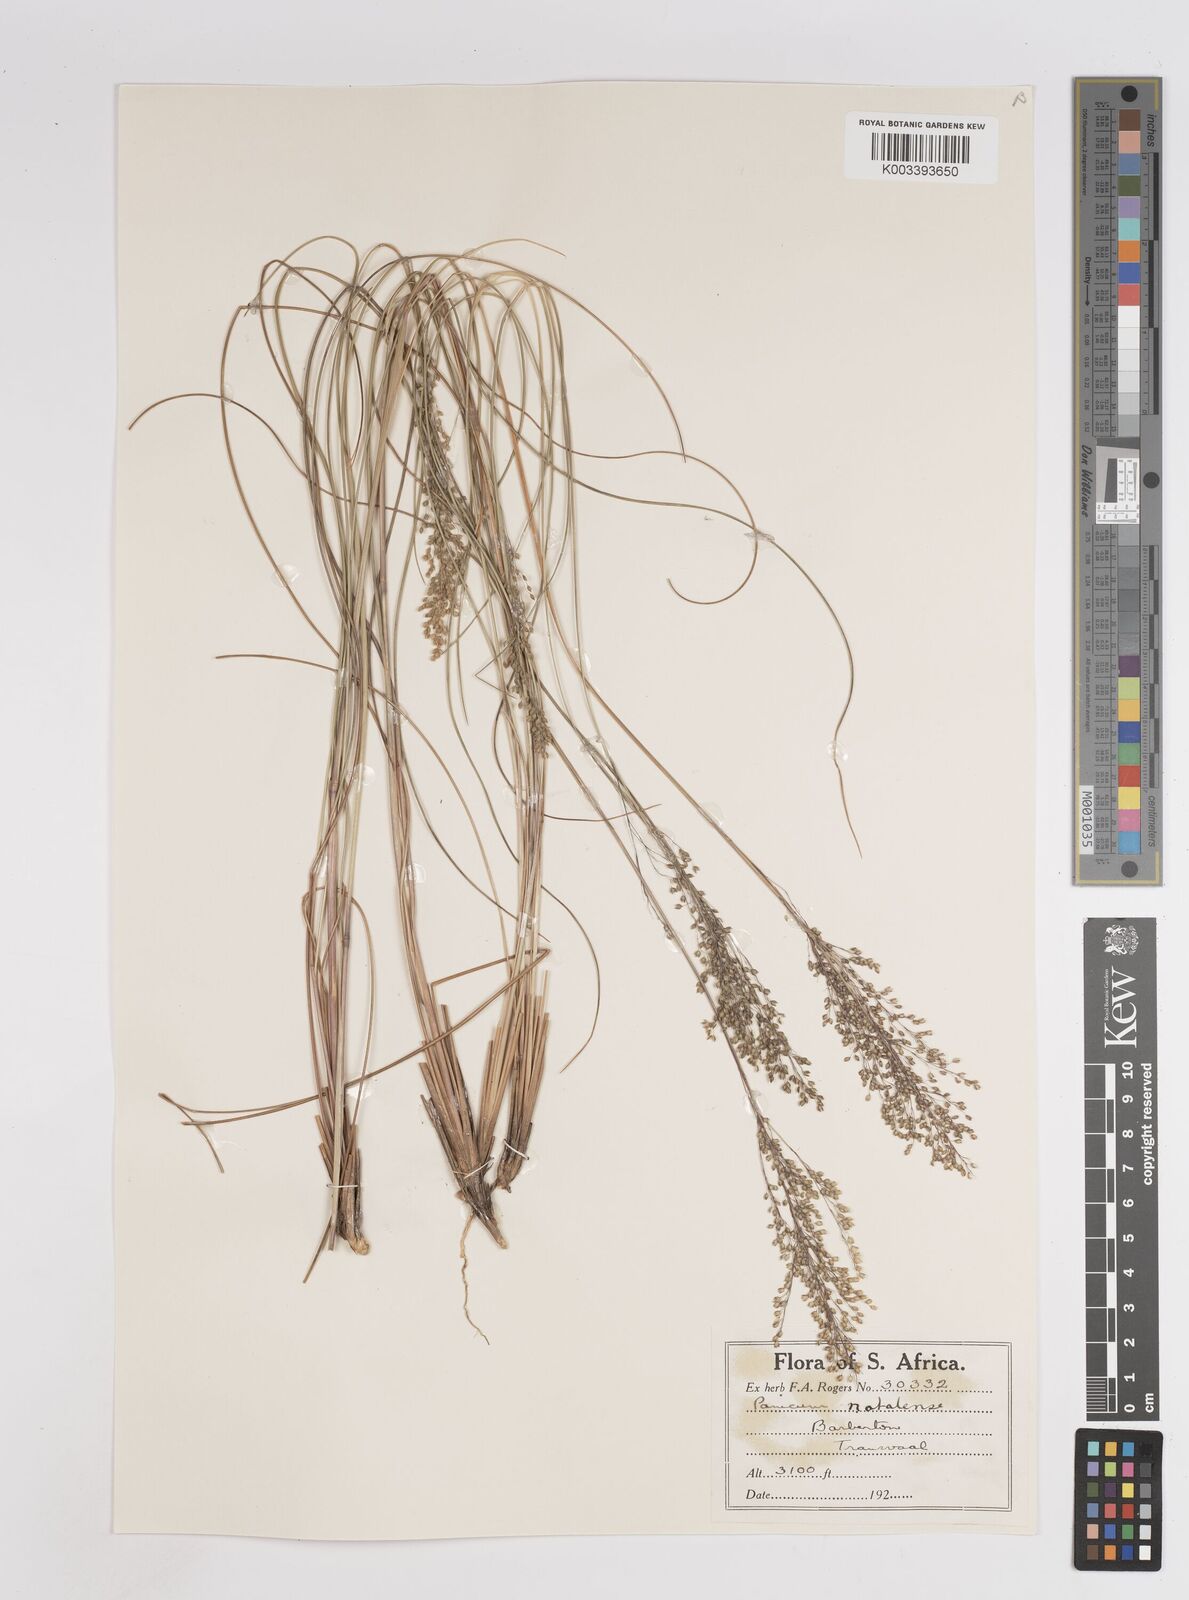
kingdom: Plantae
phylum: Tracheophyta
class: Liliopsida
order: Poales
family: Poaceae
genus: Trichanthecium
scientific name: Trichanthecium natalense
